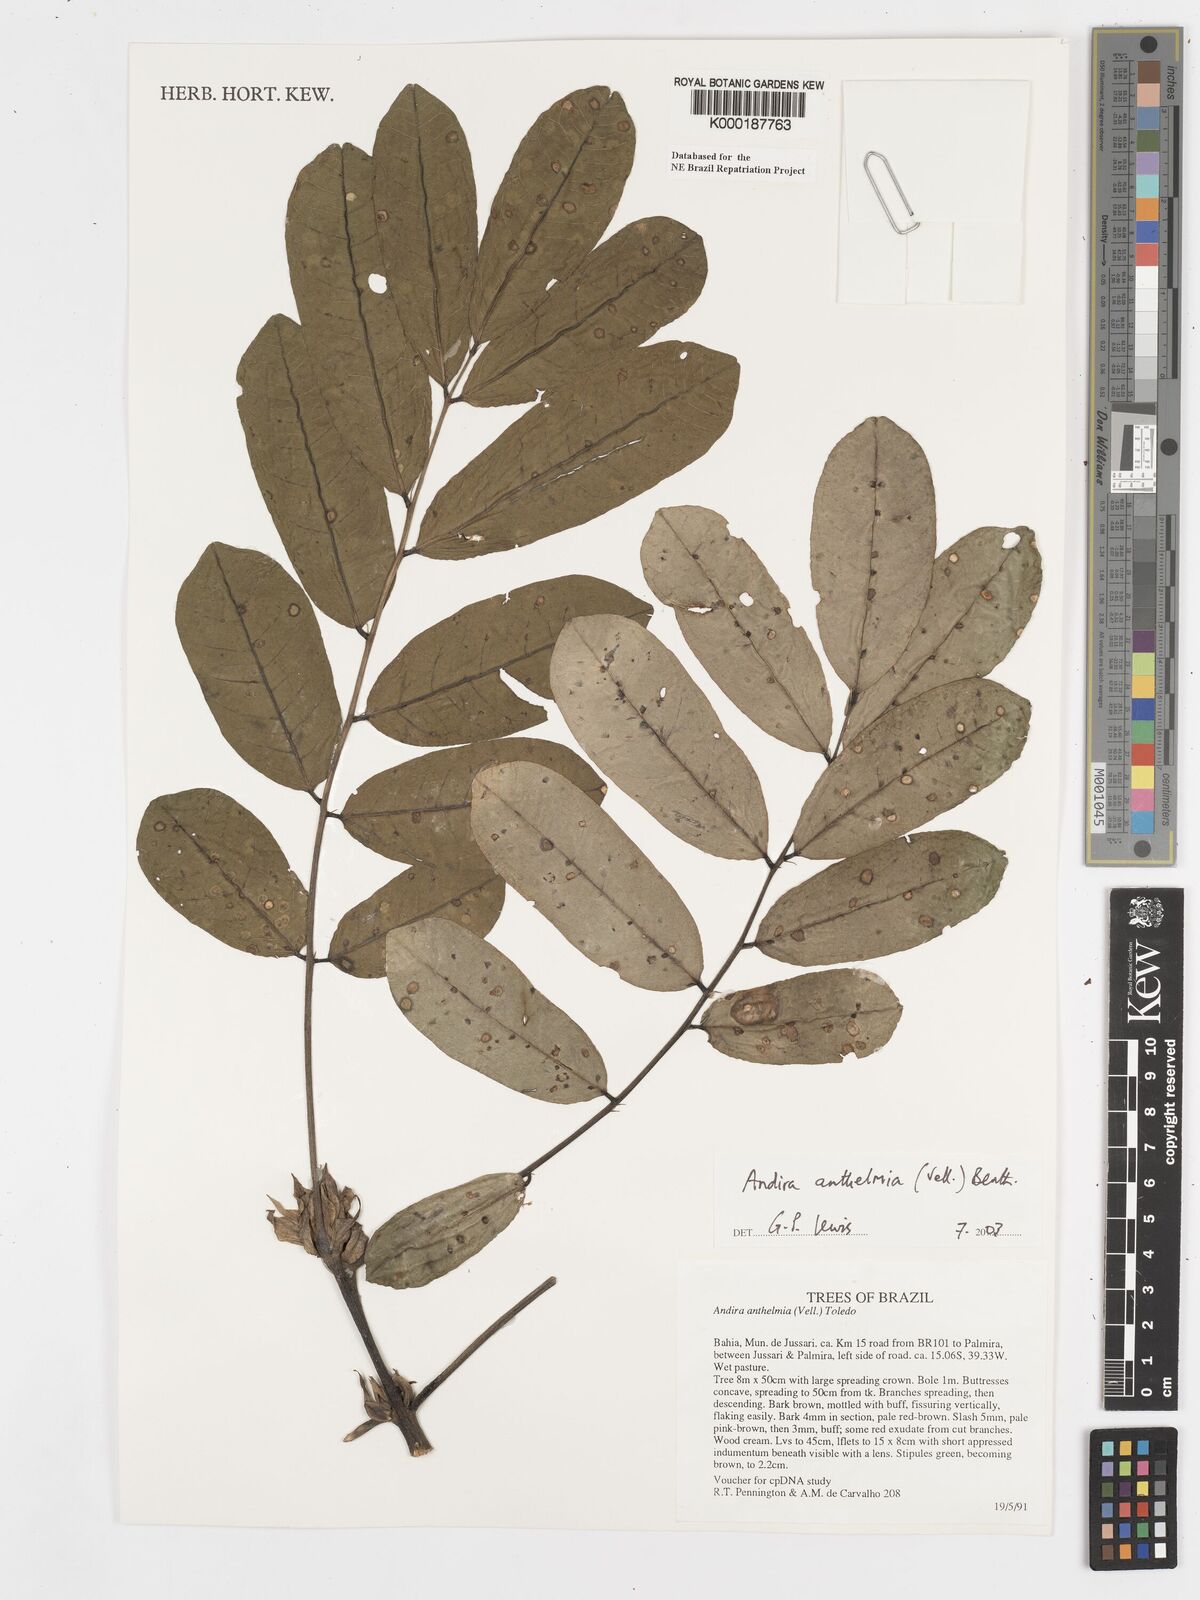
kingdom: Plantae
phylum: Tracheophyta
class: Magnoliopsida
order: Fabales
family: Fabaceae
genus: Andira
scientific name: Andira
